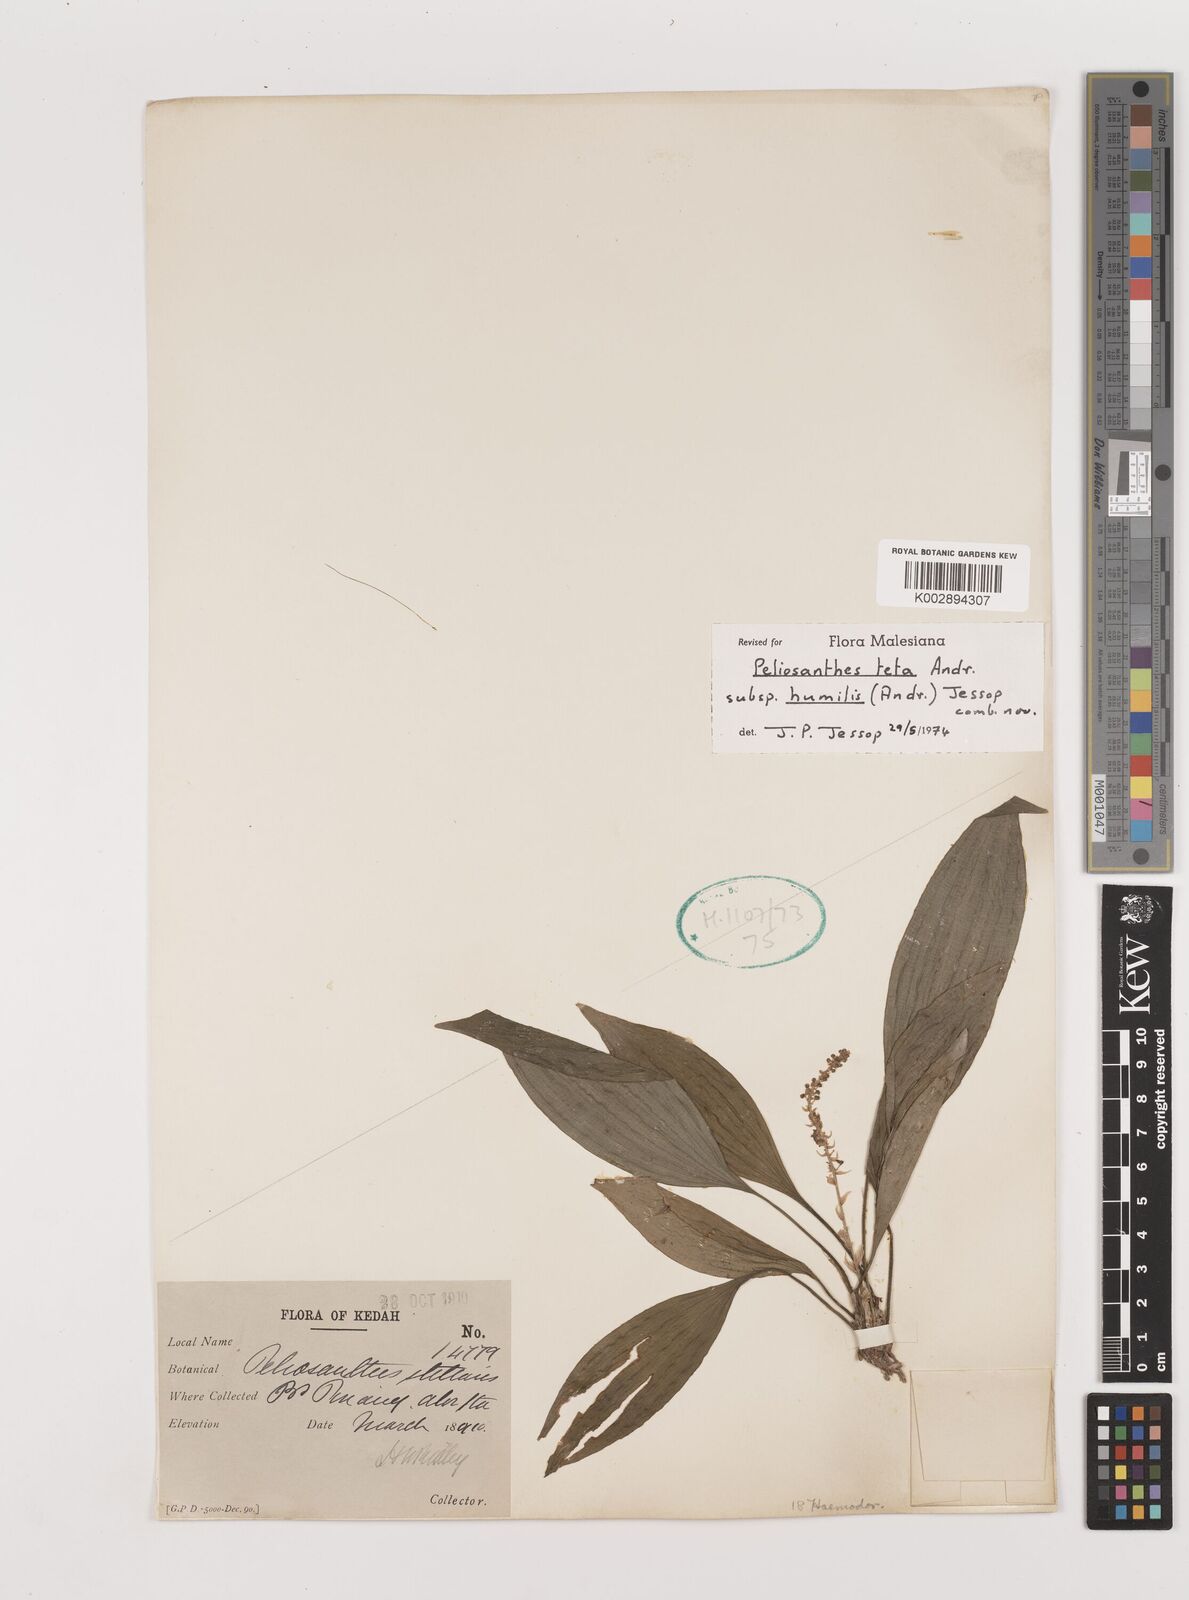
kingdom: Plantae
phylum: Tracheophyta
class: Liliopsida
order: Asparagales
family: Asparagaceae
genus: Peliosanthes
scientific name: Peliosanthes teta
